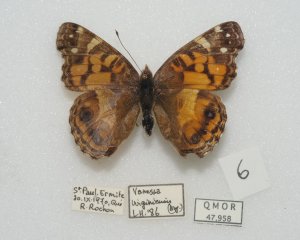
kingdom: Animalia
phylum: Arthropoda
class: Insecta
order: Lepidoptera
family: Nymphalidae
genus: Vanessa
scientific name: Vanessa virginiensis
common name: American Lady
